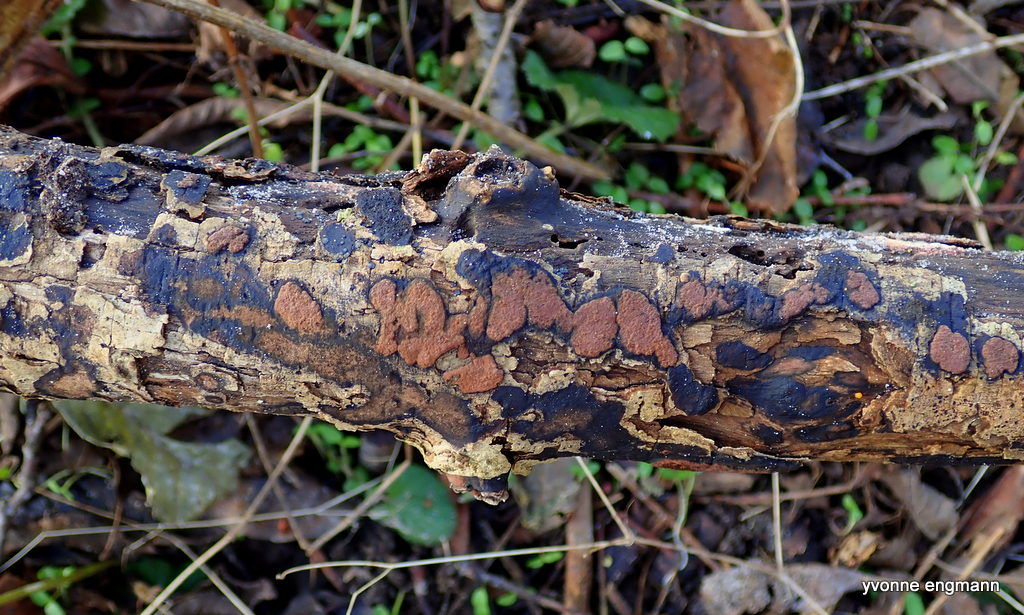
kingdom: Fungi
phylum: Ascomycota
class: Sordariomycetes
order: Xylariales
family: Hypoxylaceae
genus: Hypoxylon
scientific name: Hypoxylon petriniae
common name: nedsænket kulbær
